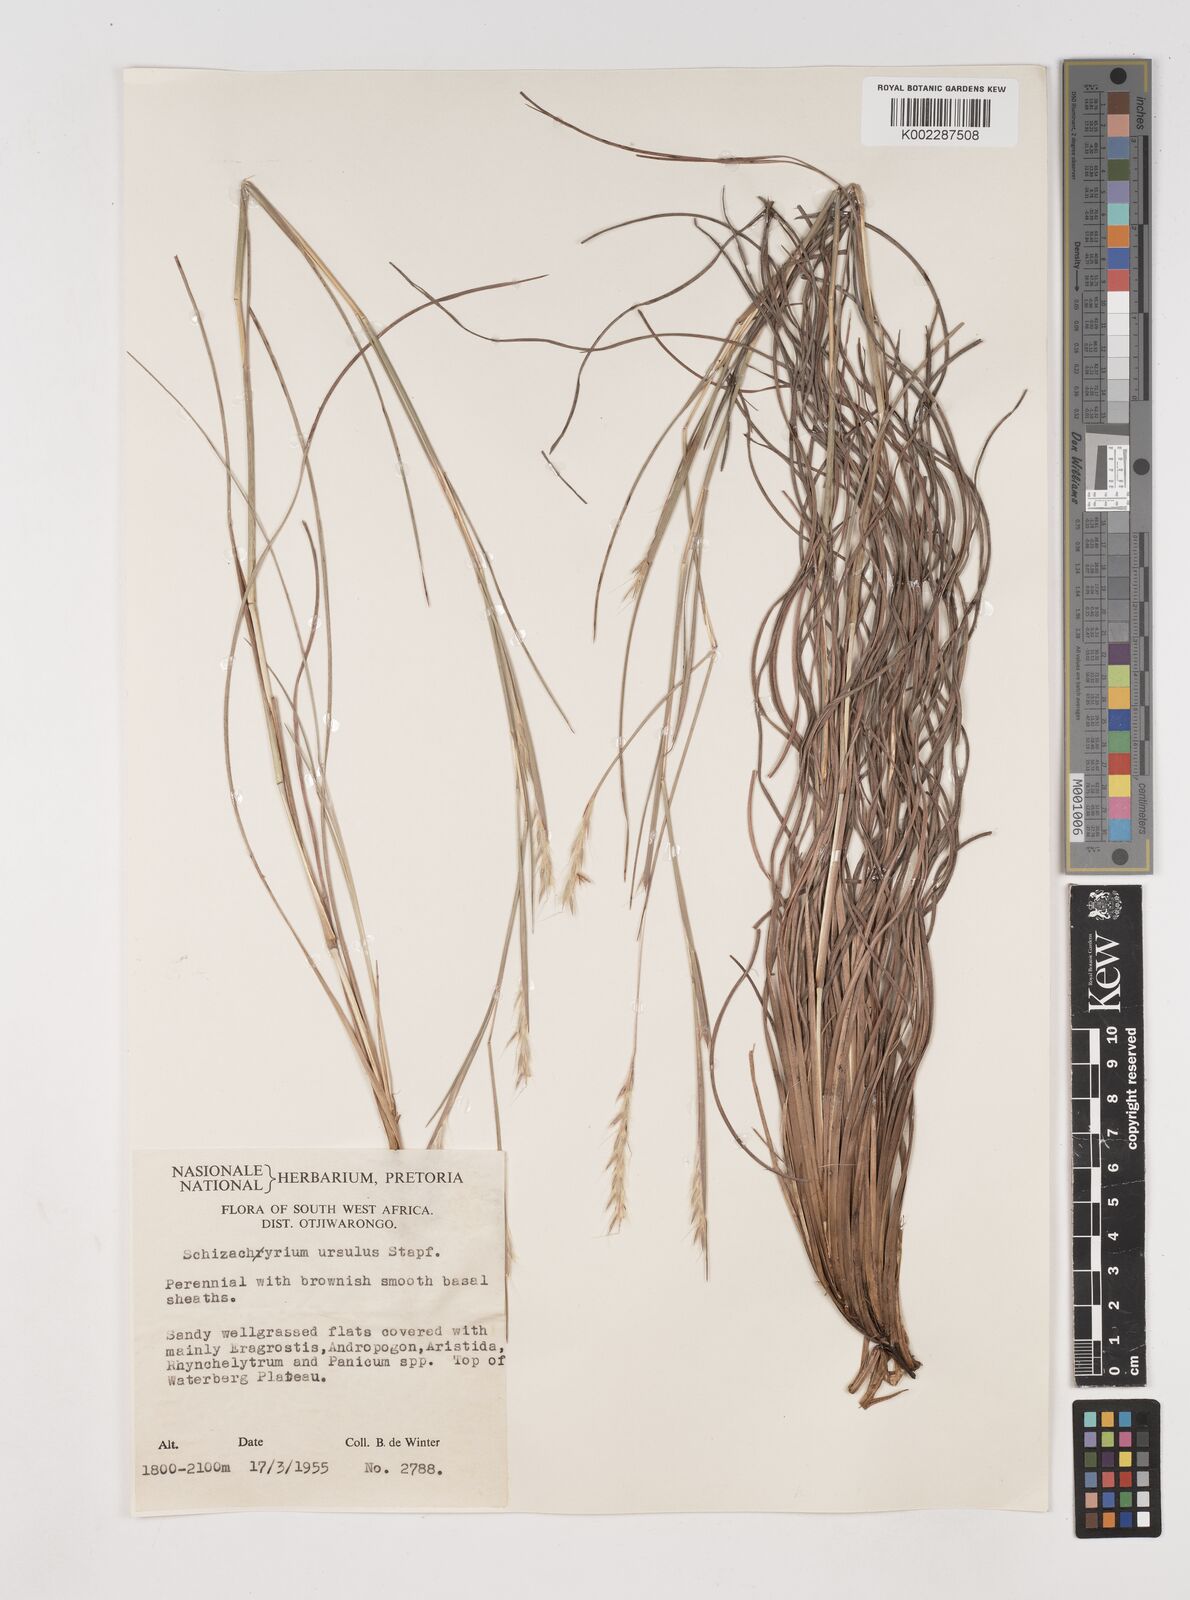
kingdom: Plantae
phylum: Tracheophyta
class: Liliopsida
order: Poales
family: Poaceae
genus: Schizachyrium
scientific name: Schizachyrium jeffreysii
